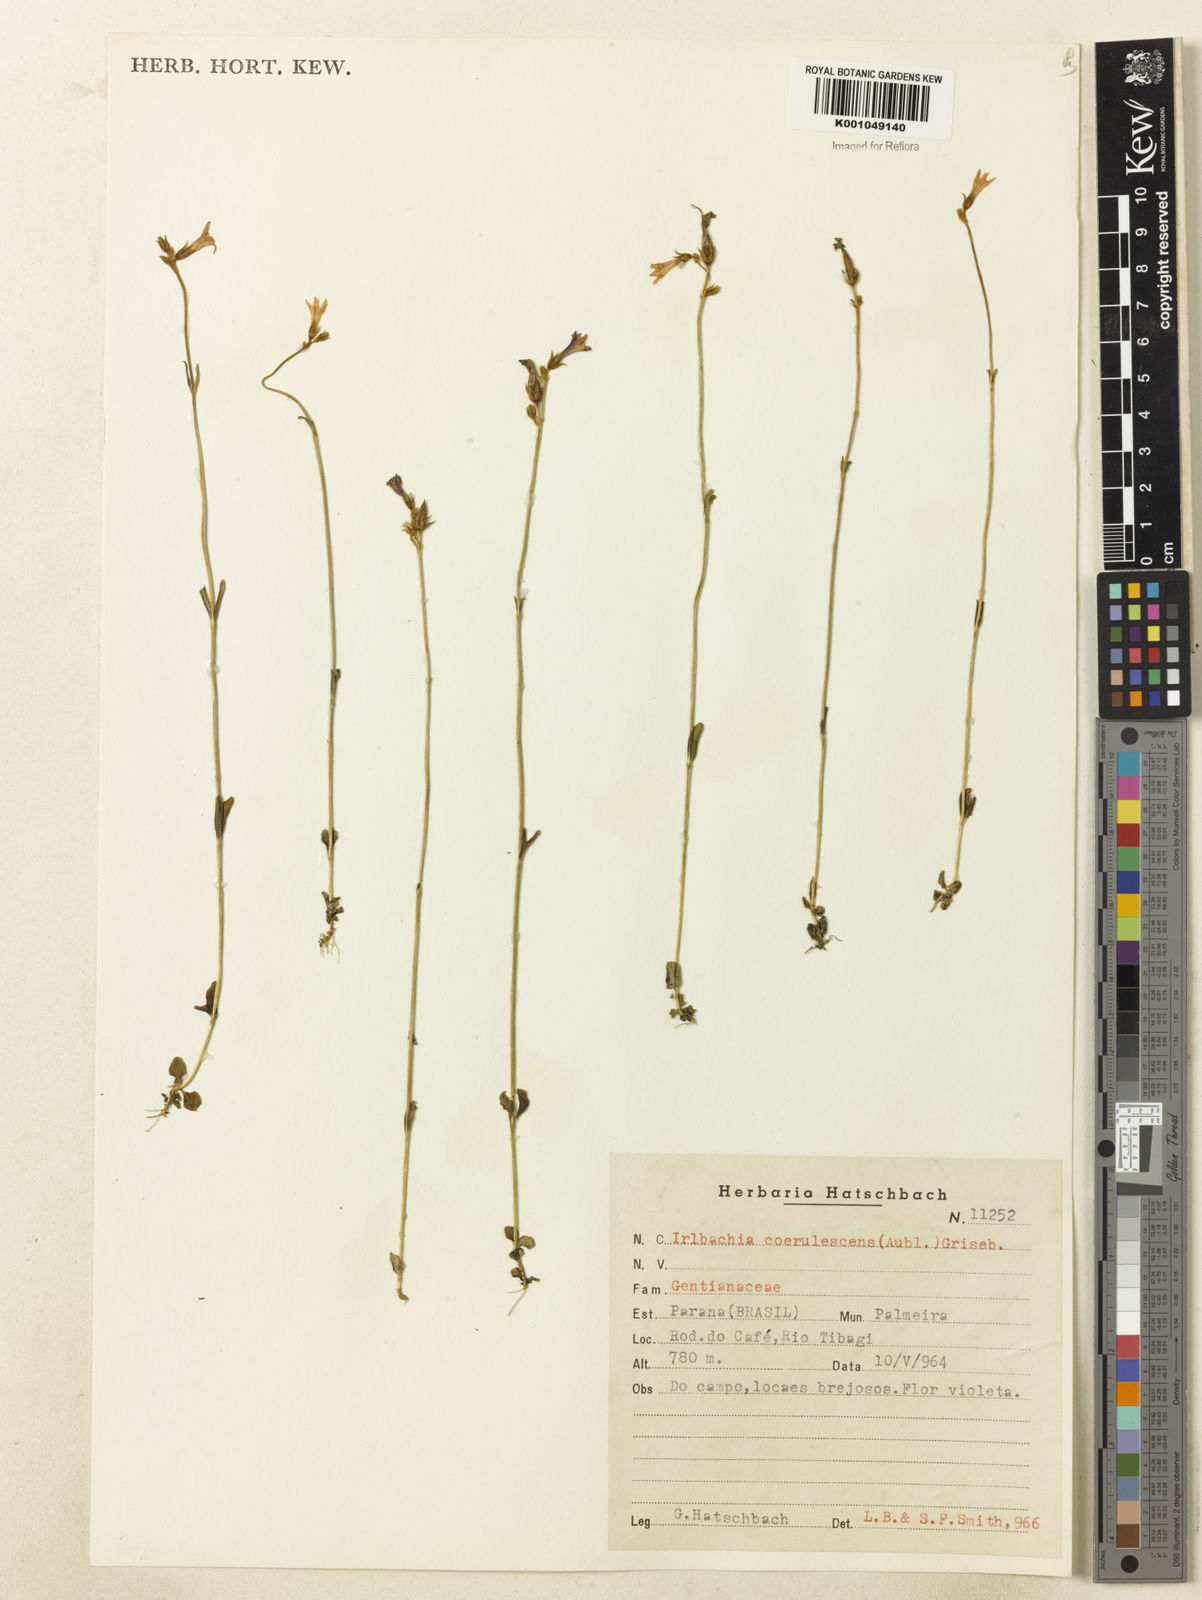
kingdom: Plantae
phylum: Tracheophyta
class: Magnoliopsida
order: Gentianales
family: Gentianaceae
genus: Tetrapollinia
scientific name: Tetrapollinia caerulescens
